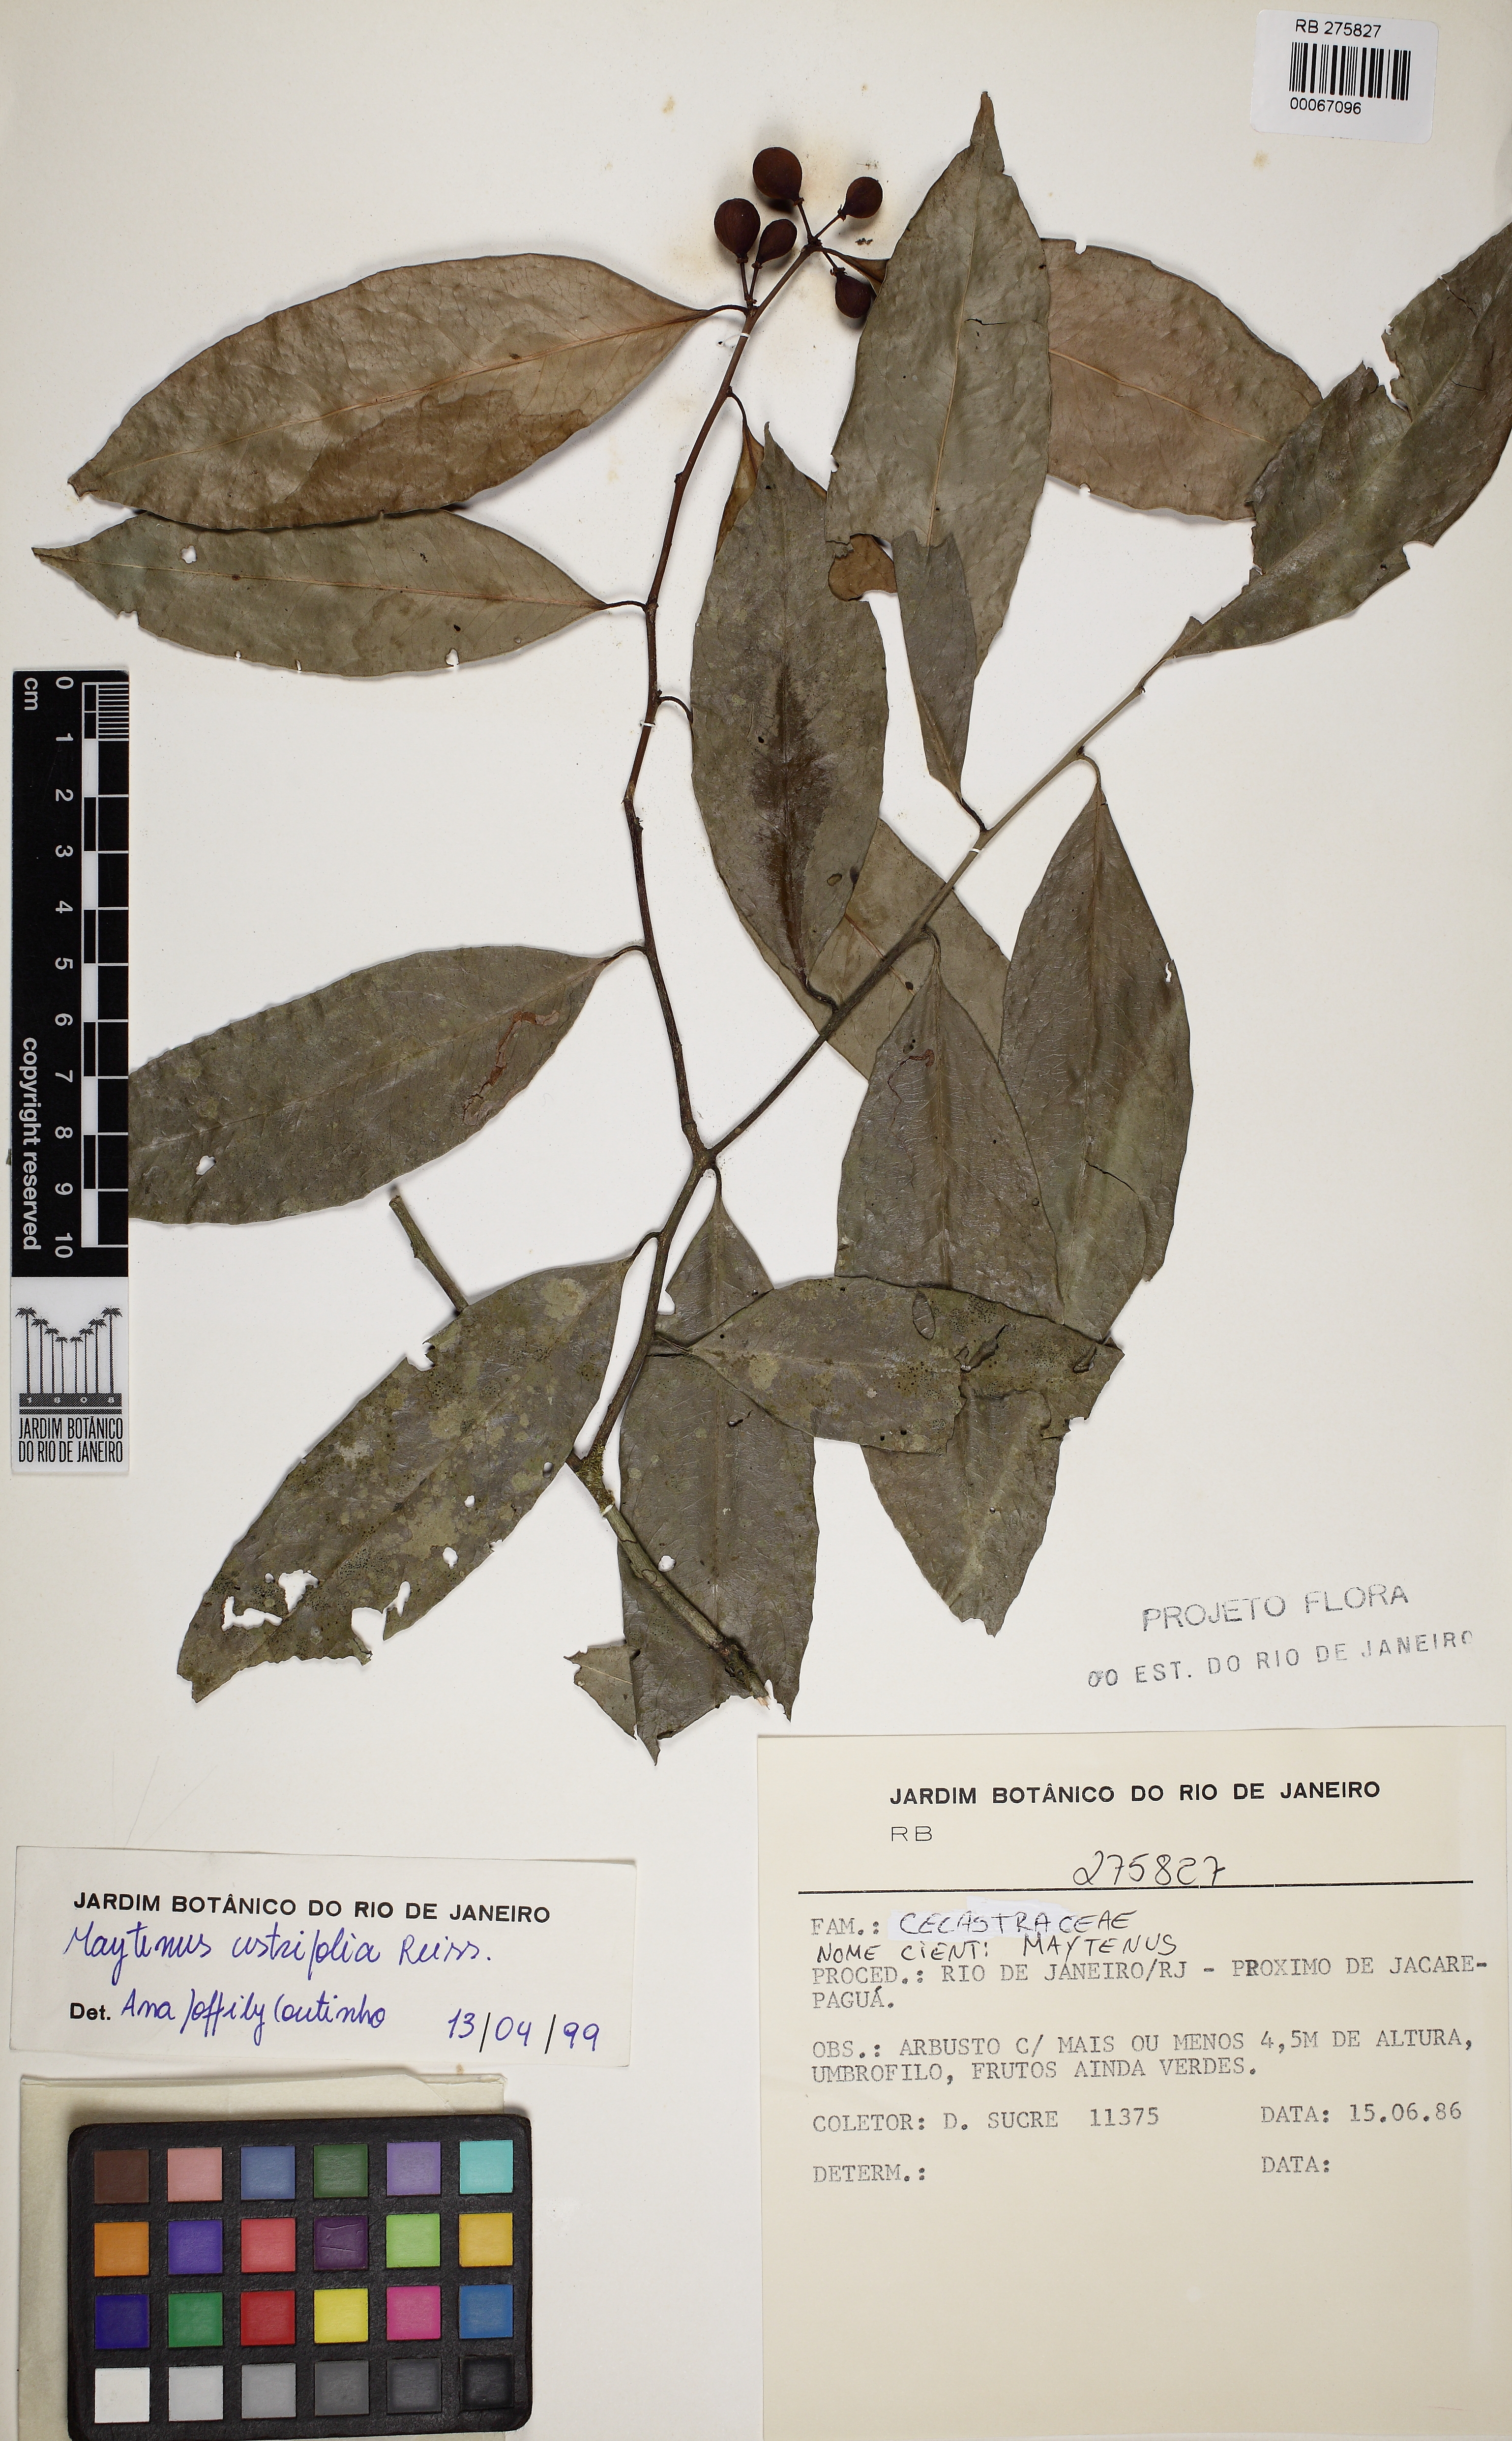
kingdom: Plantae
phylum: Tracheophyta
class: Magnoliopsida
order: Celastrales
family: Celastraceae
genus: Monteverdia
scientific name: Monteverdia cestrifolia
